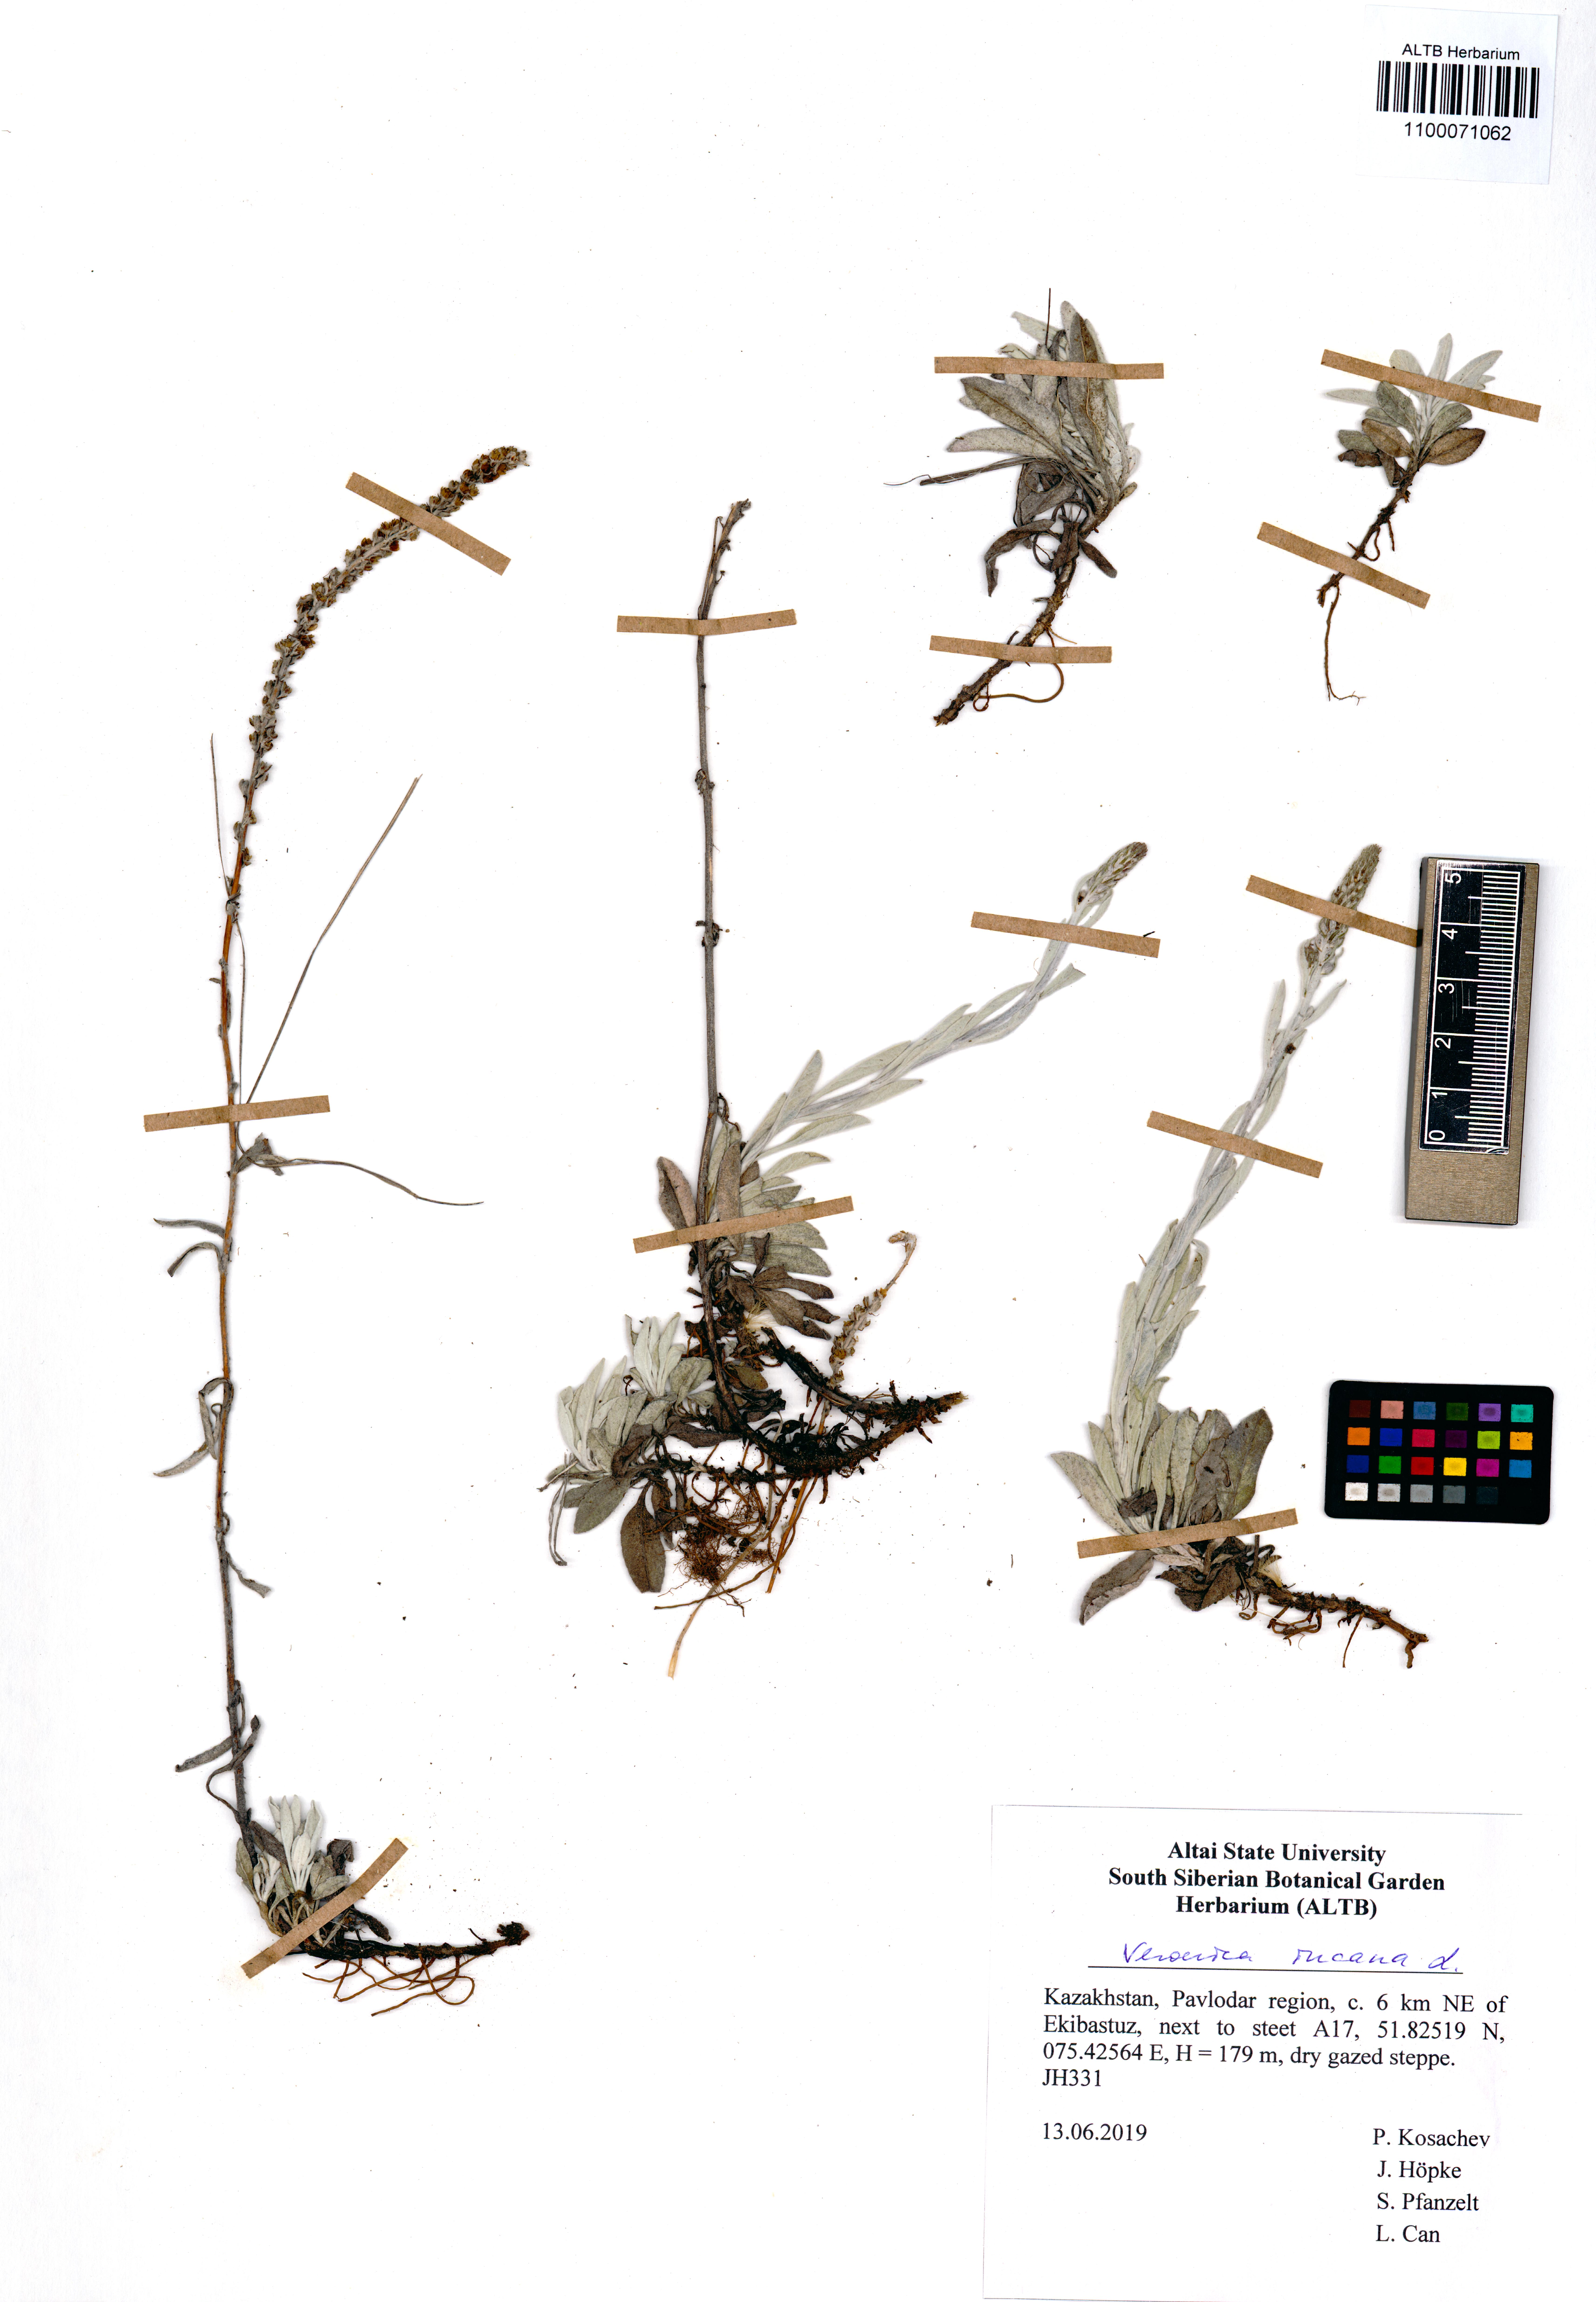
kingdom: Plantae
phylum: Tracheophyta
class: Magnoliopsida
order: Lamiales
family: Plantaginaceae
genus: Veronica
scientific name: Veronica incana
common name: Silver speedwell
